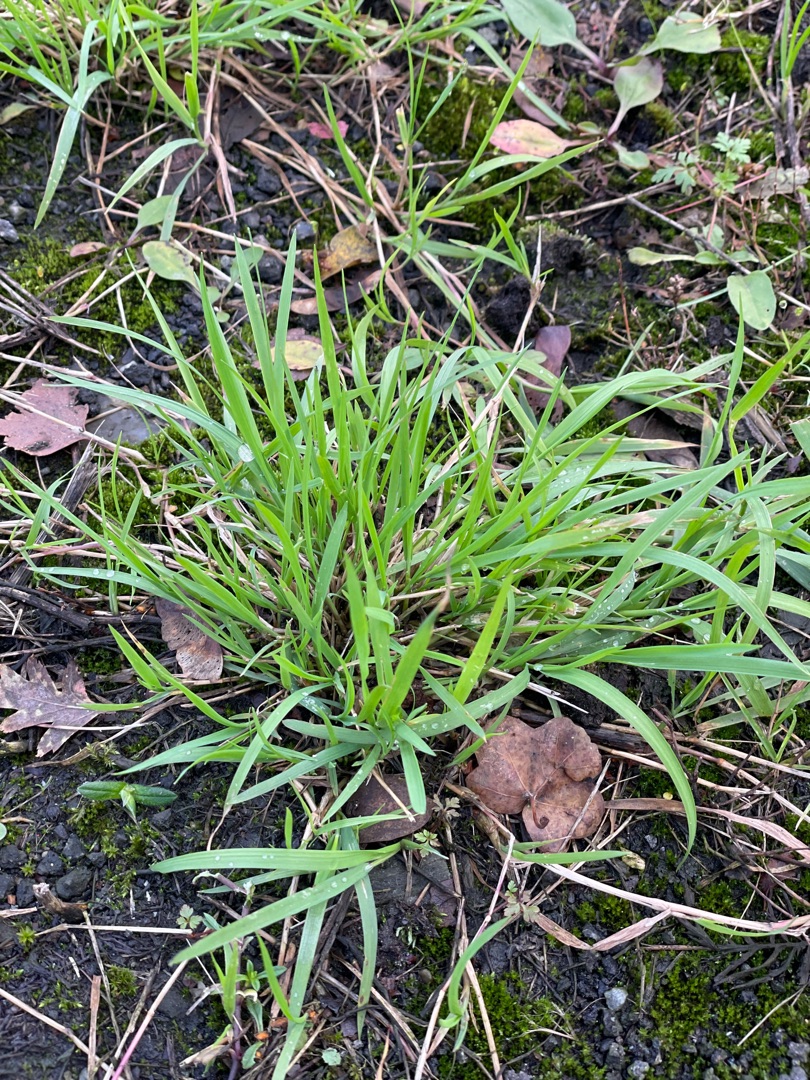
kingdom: Plantae
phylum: Tracheophyta
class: Liliopsida
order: Poales
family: Poaceae
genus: Poa
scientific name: Poa trivialis
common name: Almindelig rapgræs
